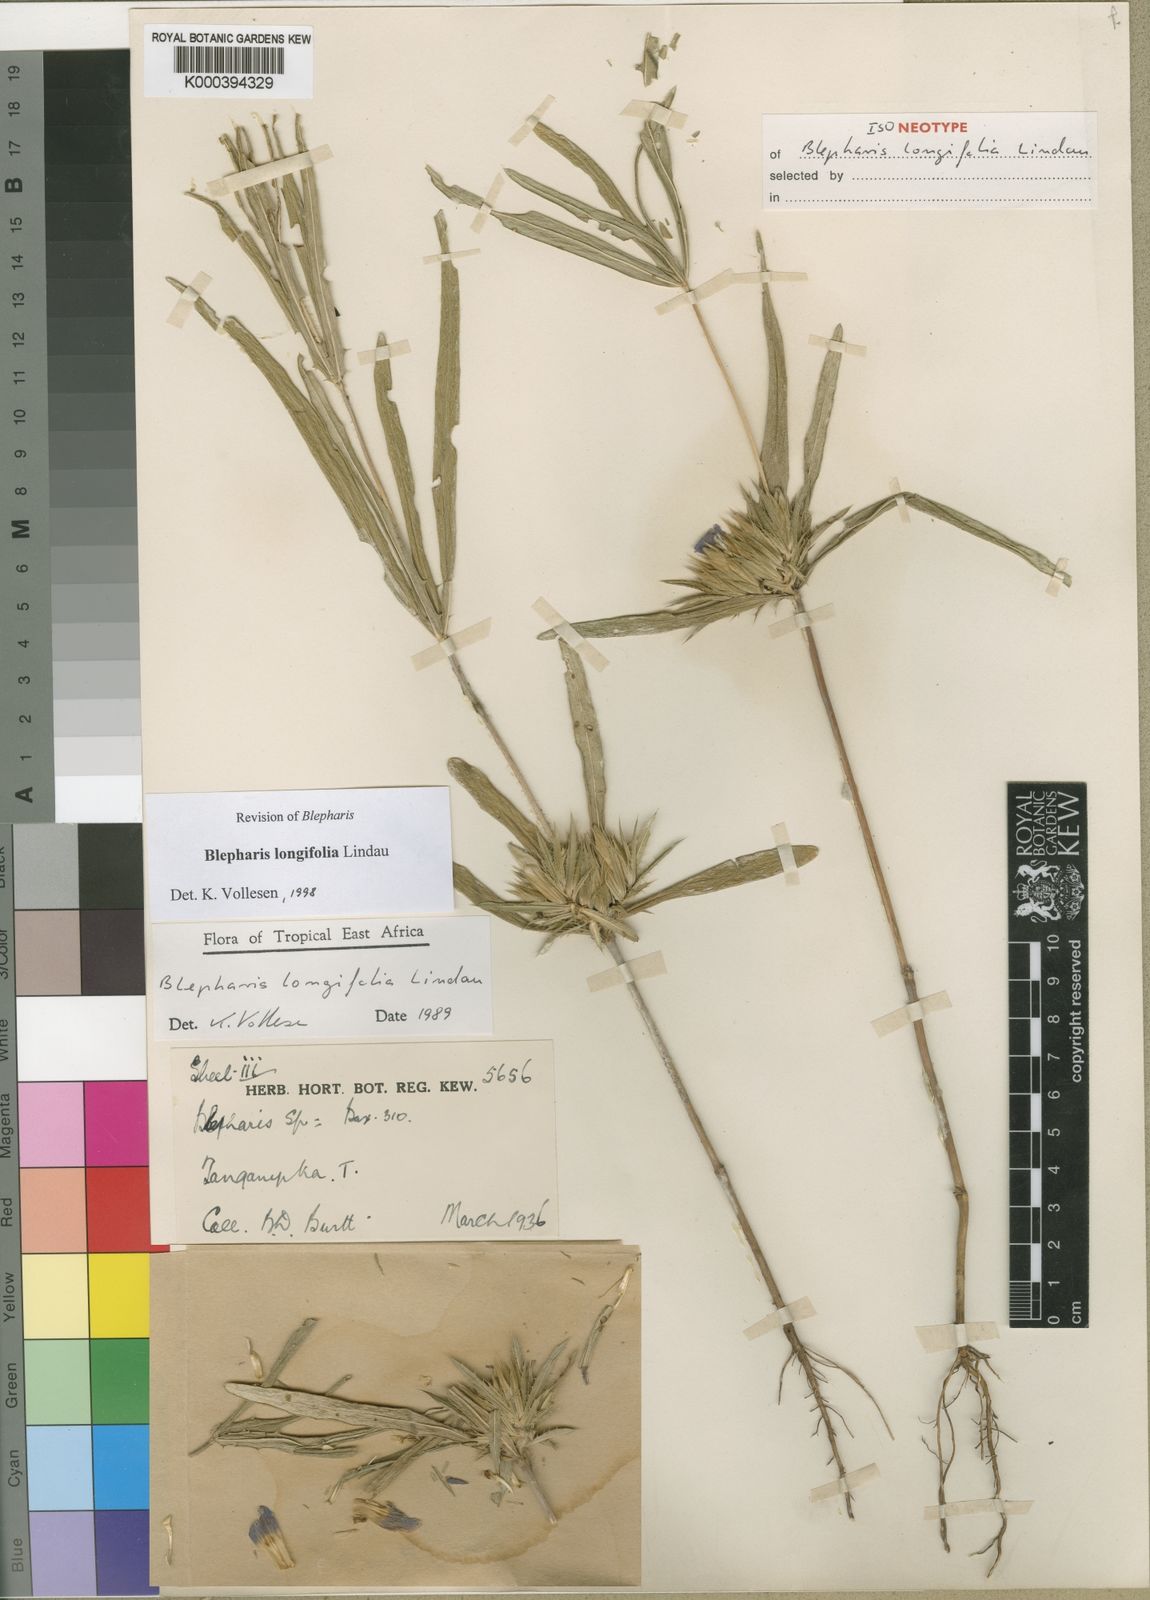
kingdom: Plantae
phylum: Tracheophyta
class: Magnoliopsida
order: Lamiales
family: Acanthaceae
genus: Blepharis
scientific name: Blepharis longifolia
